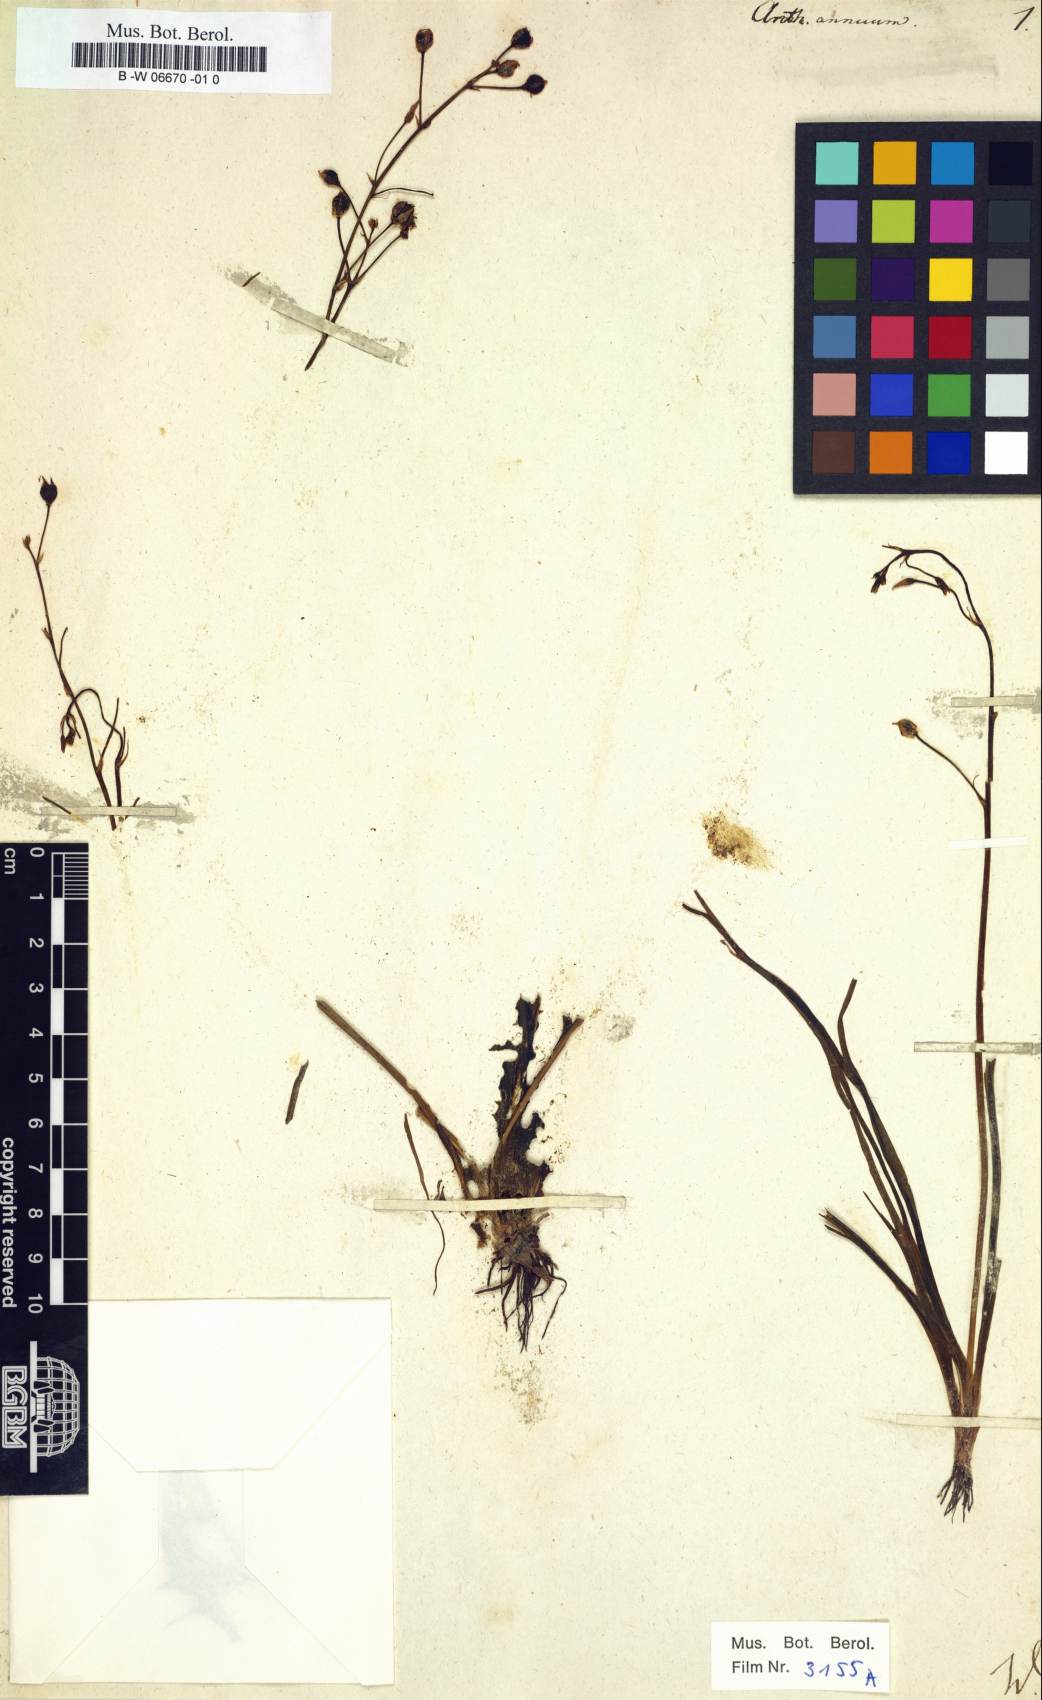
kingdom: Plantae
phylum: Tracheophyta
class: Liliopsida
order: Asparagales
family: Asphodelaceae
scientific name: Asphodelaceae
